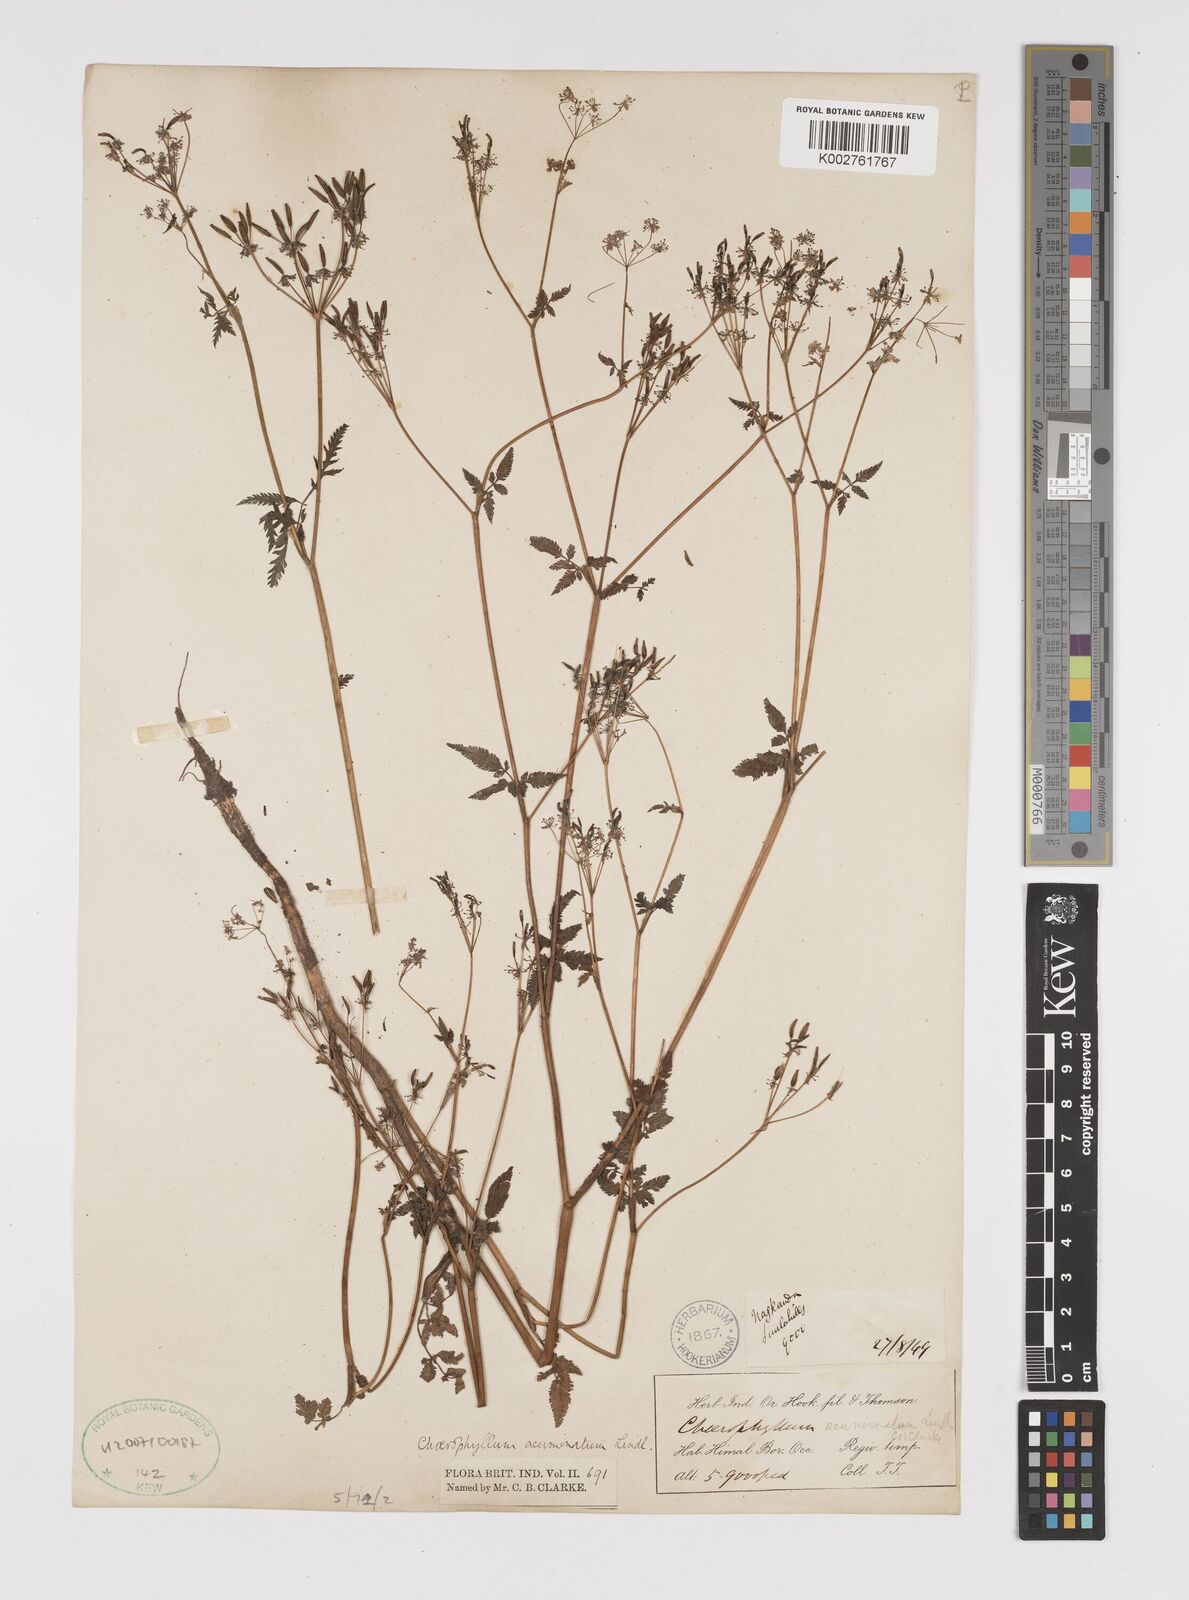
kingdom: Plantae
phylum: Tracheophyta
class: Magnoliopsida
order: Apiales
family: Apiaceae
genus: Chaerophyllum
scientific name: Chaerophyllum reflexum
